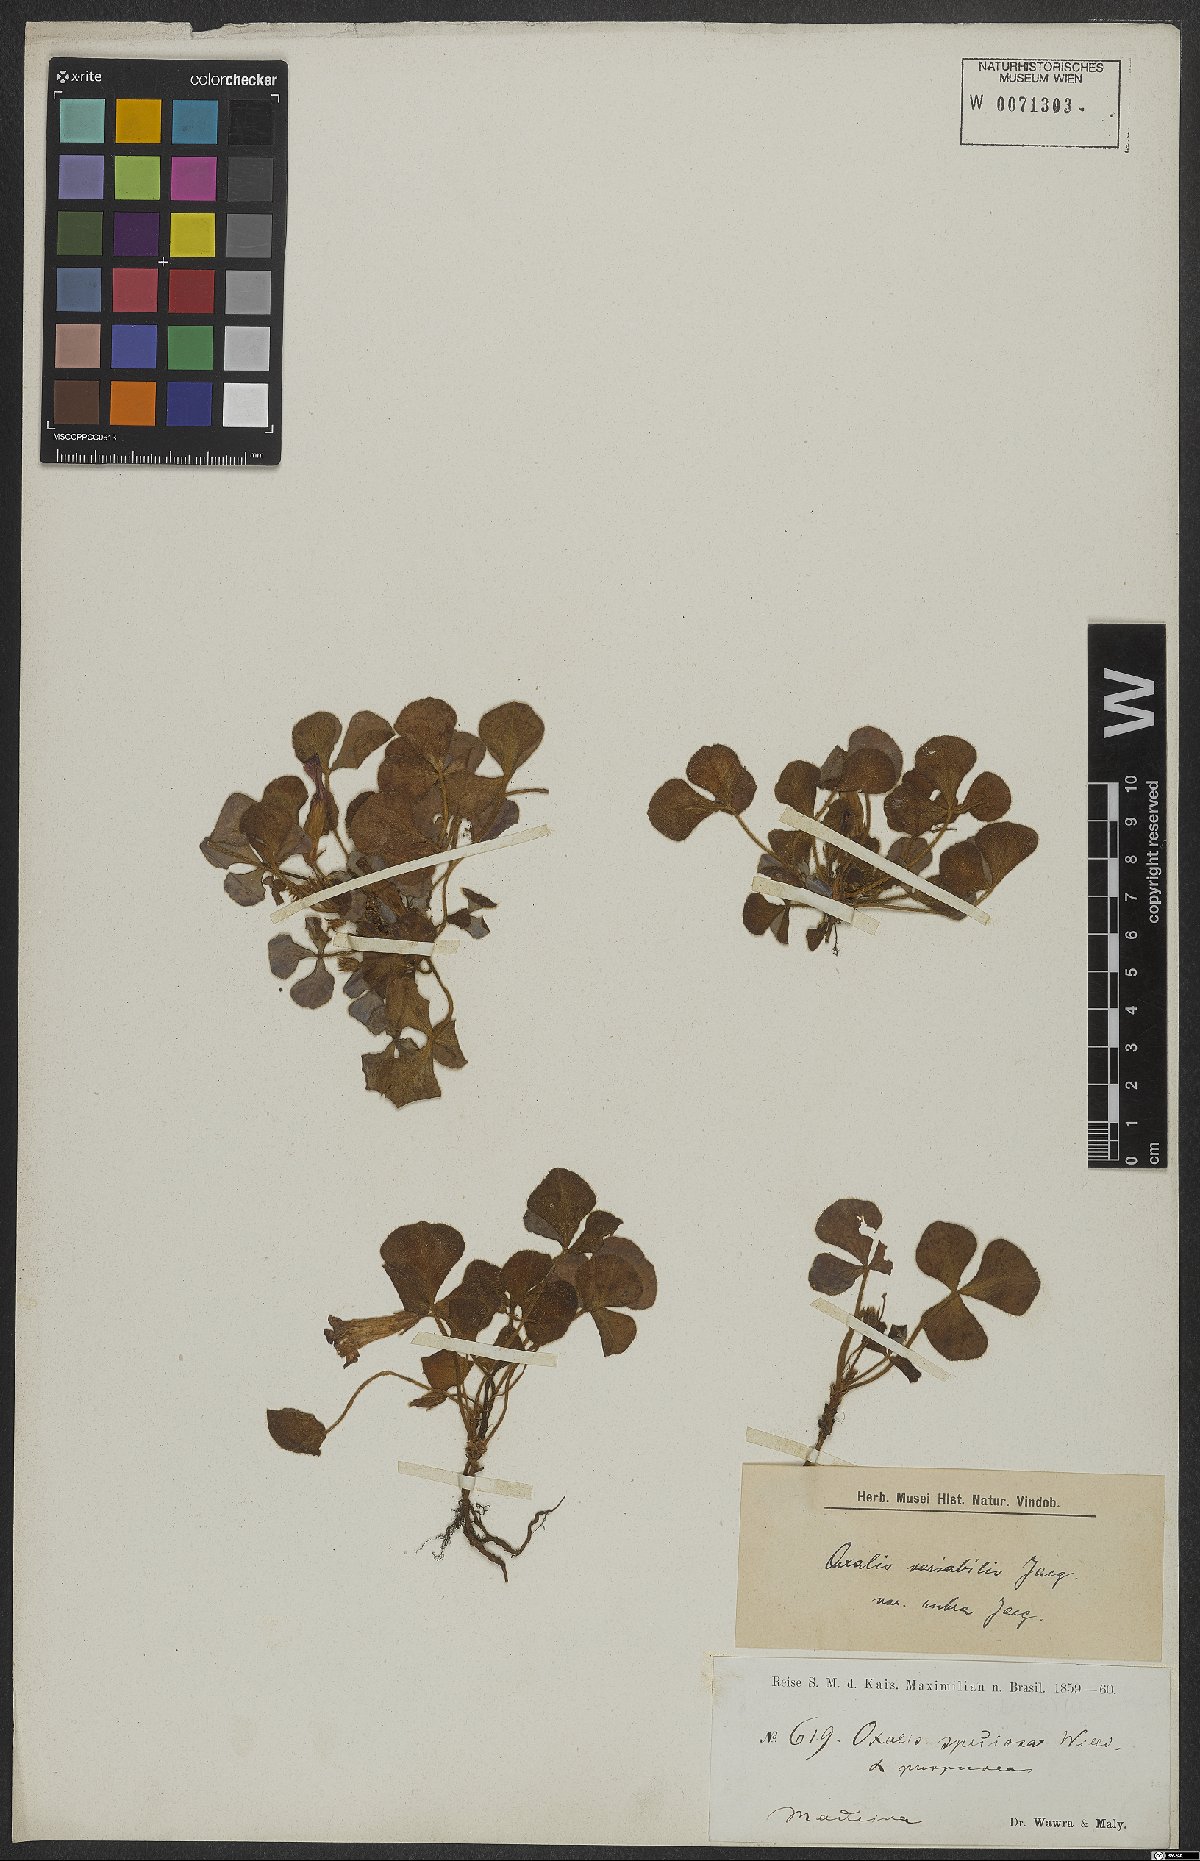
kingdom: Plantae
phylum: Tracheophyta
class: Magnoliopsida
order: Oxalidales
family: Oxalidaceae
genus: Oxalis
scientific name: Oxalis purpurea
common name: Purple woodsorrel
